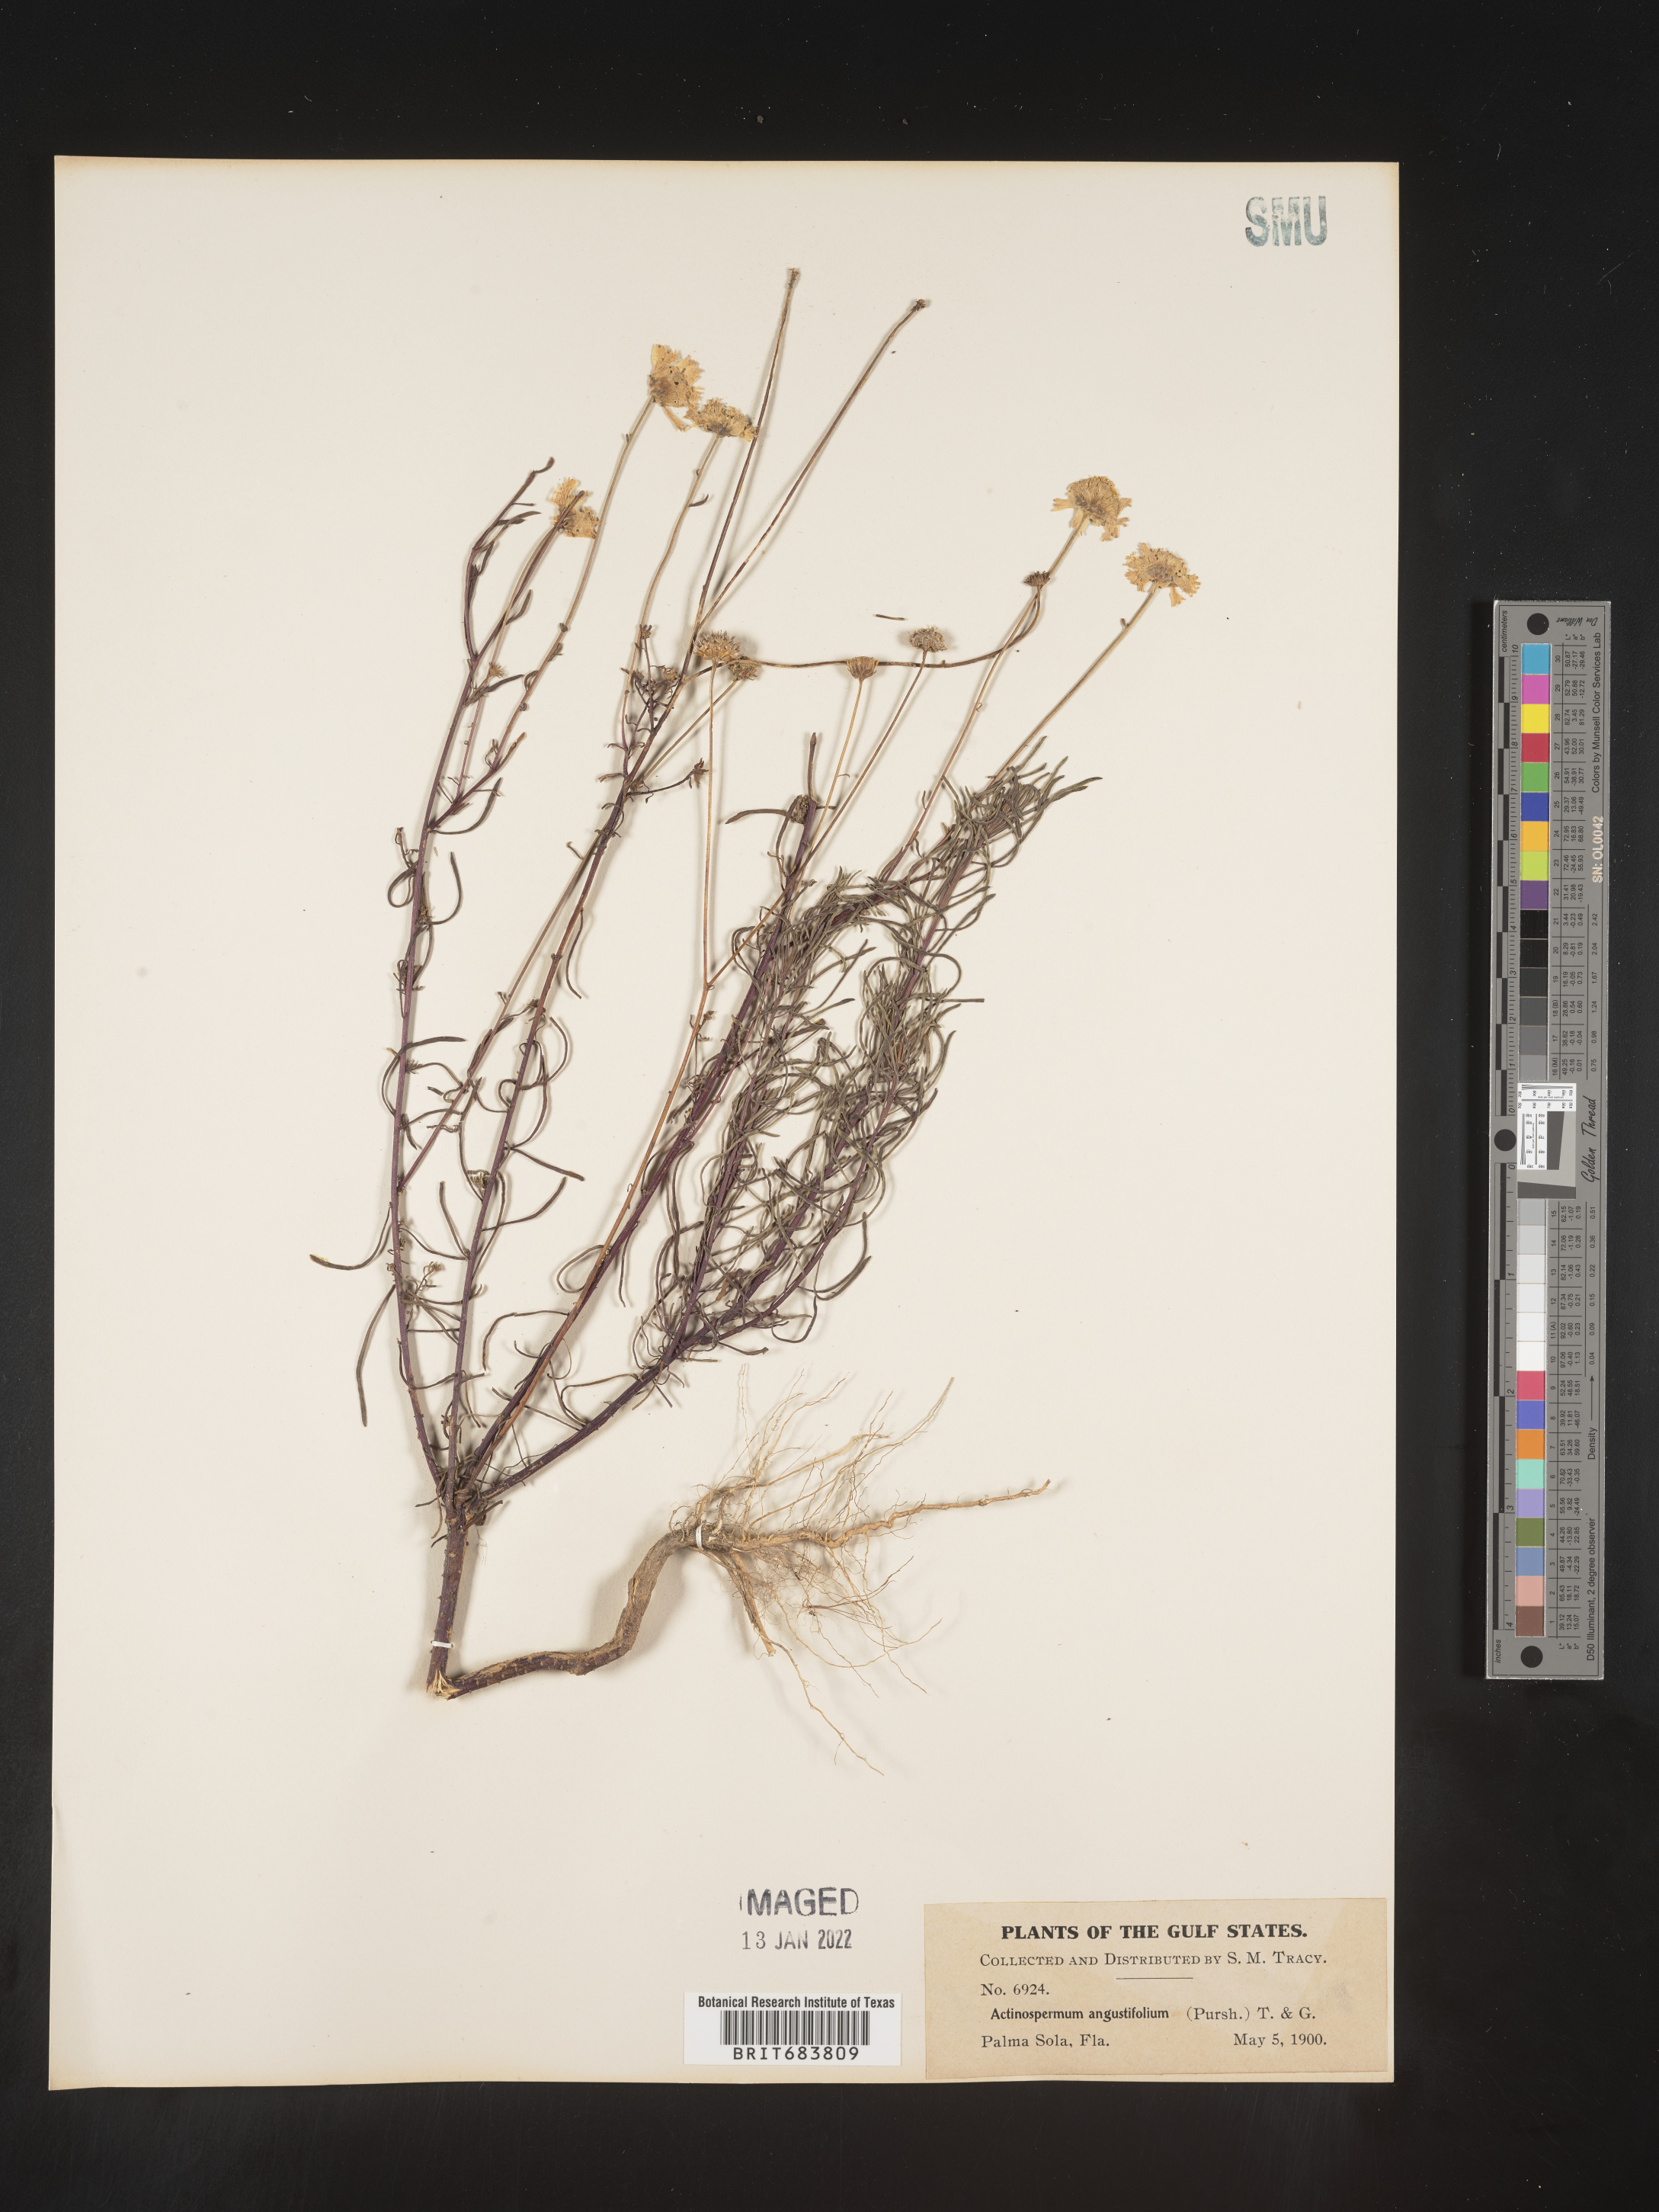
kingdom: Plantae
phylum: Tracheophyta
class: Magnoliopsida
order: Asterales
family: Asteraceae
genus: Balduina
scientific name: Balduina angustifolia
